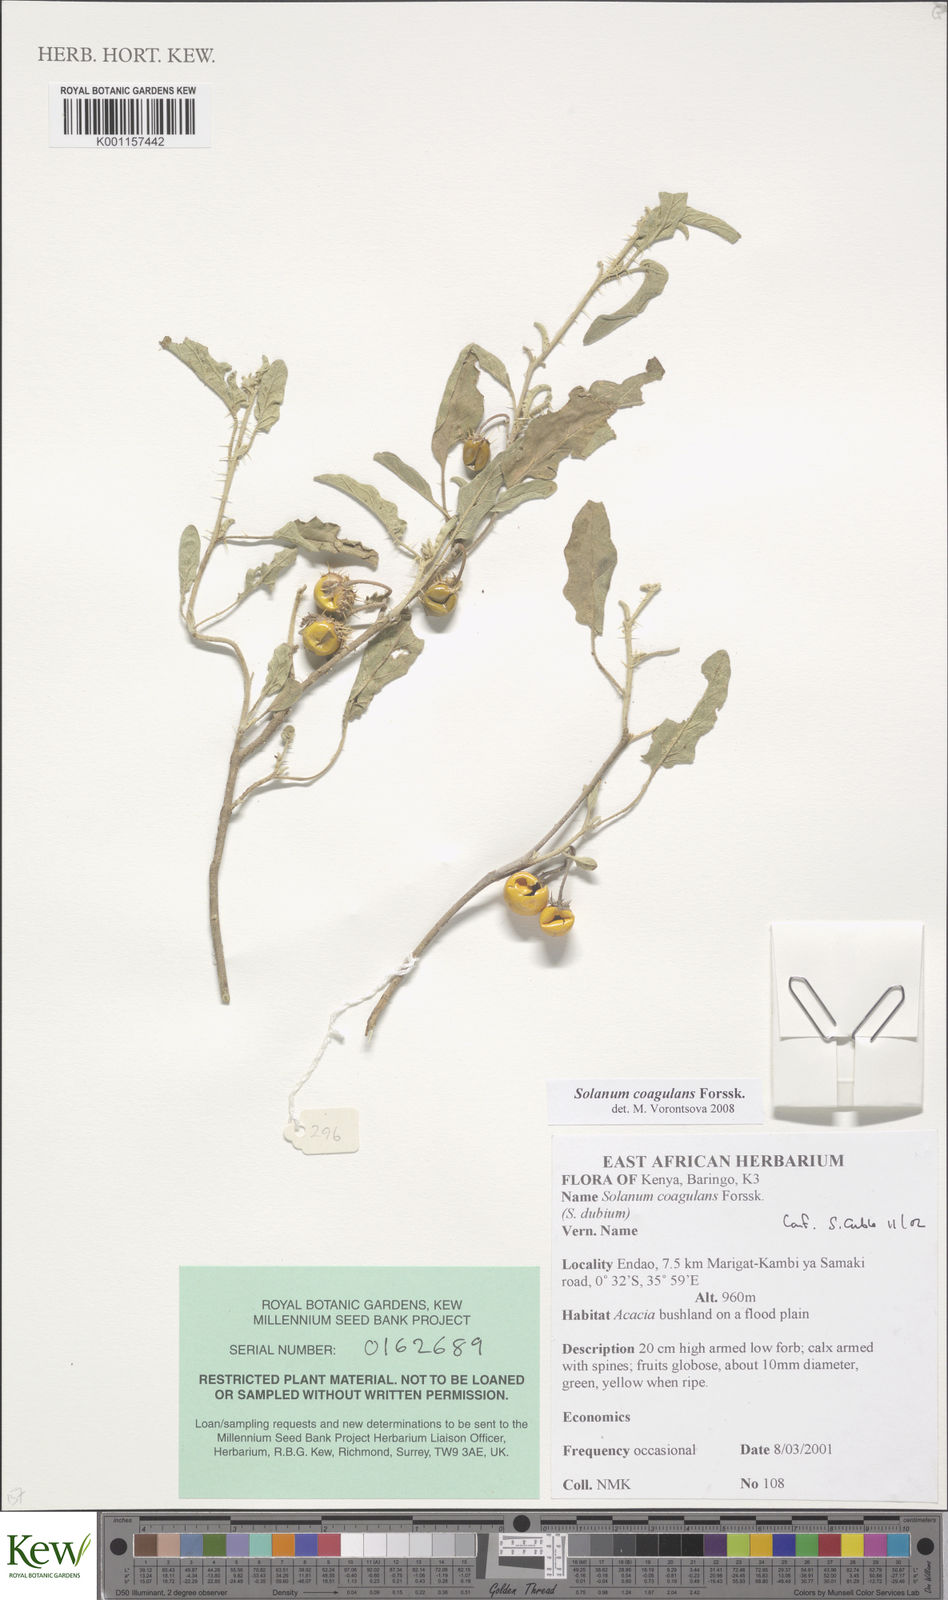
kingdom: Plantae
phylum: Tracheophyta
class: Magnoliopsida
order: Solanales
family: Solanaceae
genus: Solanum
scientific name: Solanum coagulans
